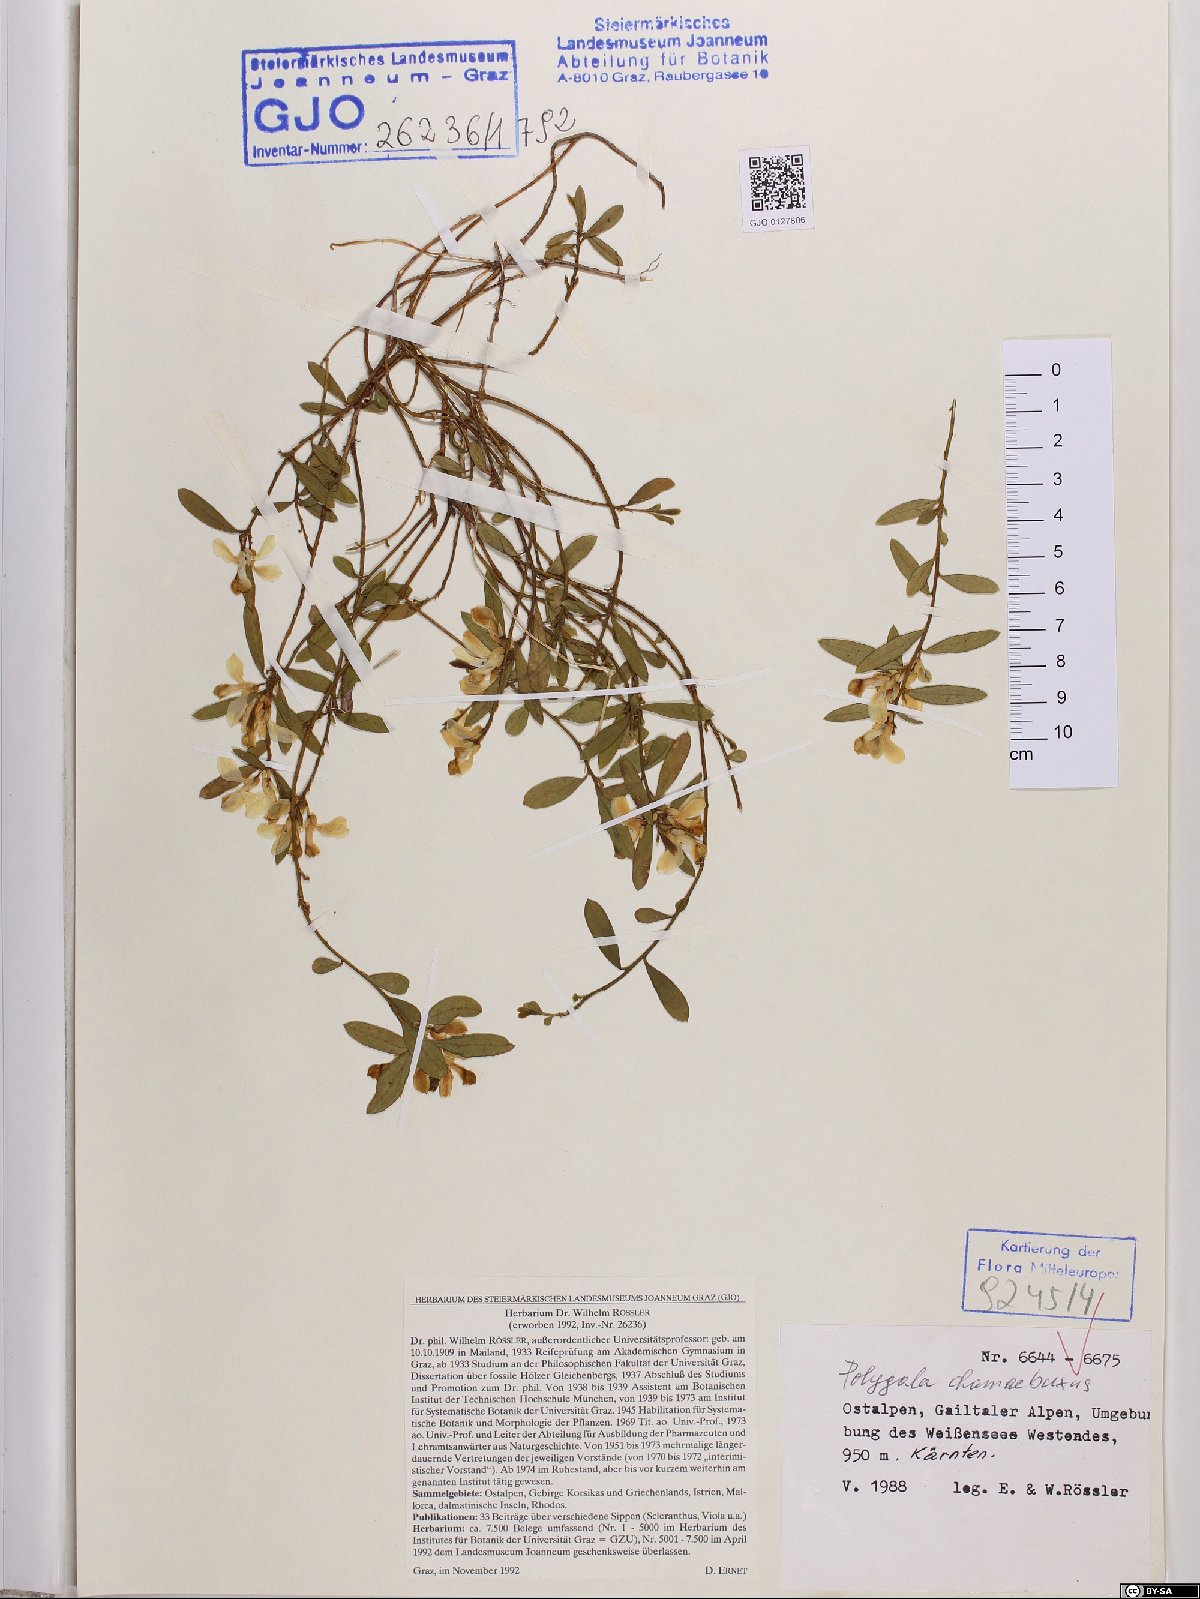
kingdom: Plantae
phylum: Tracheophyta
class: Magnoliopsida
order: Fabales
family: Polygalaceae
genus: Polygaloides
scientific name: Polygaloides chamaebuxus
